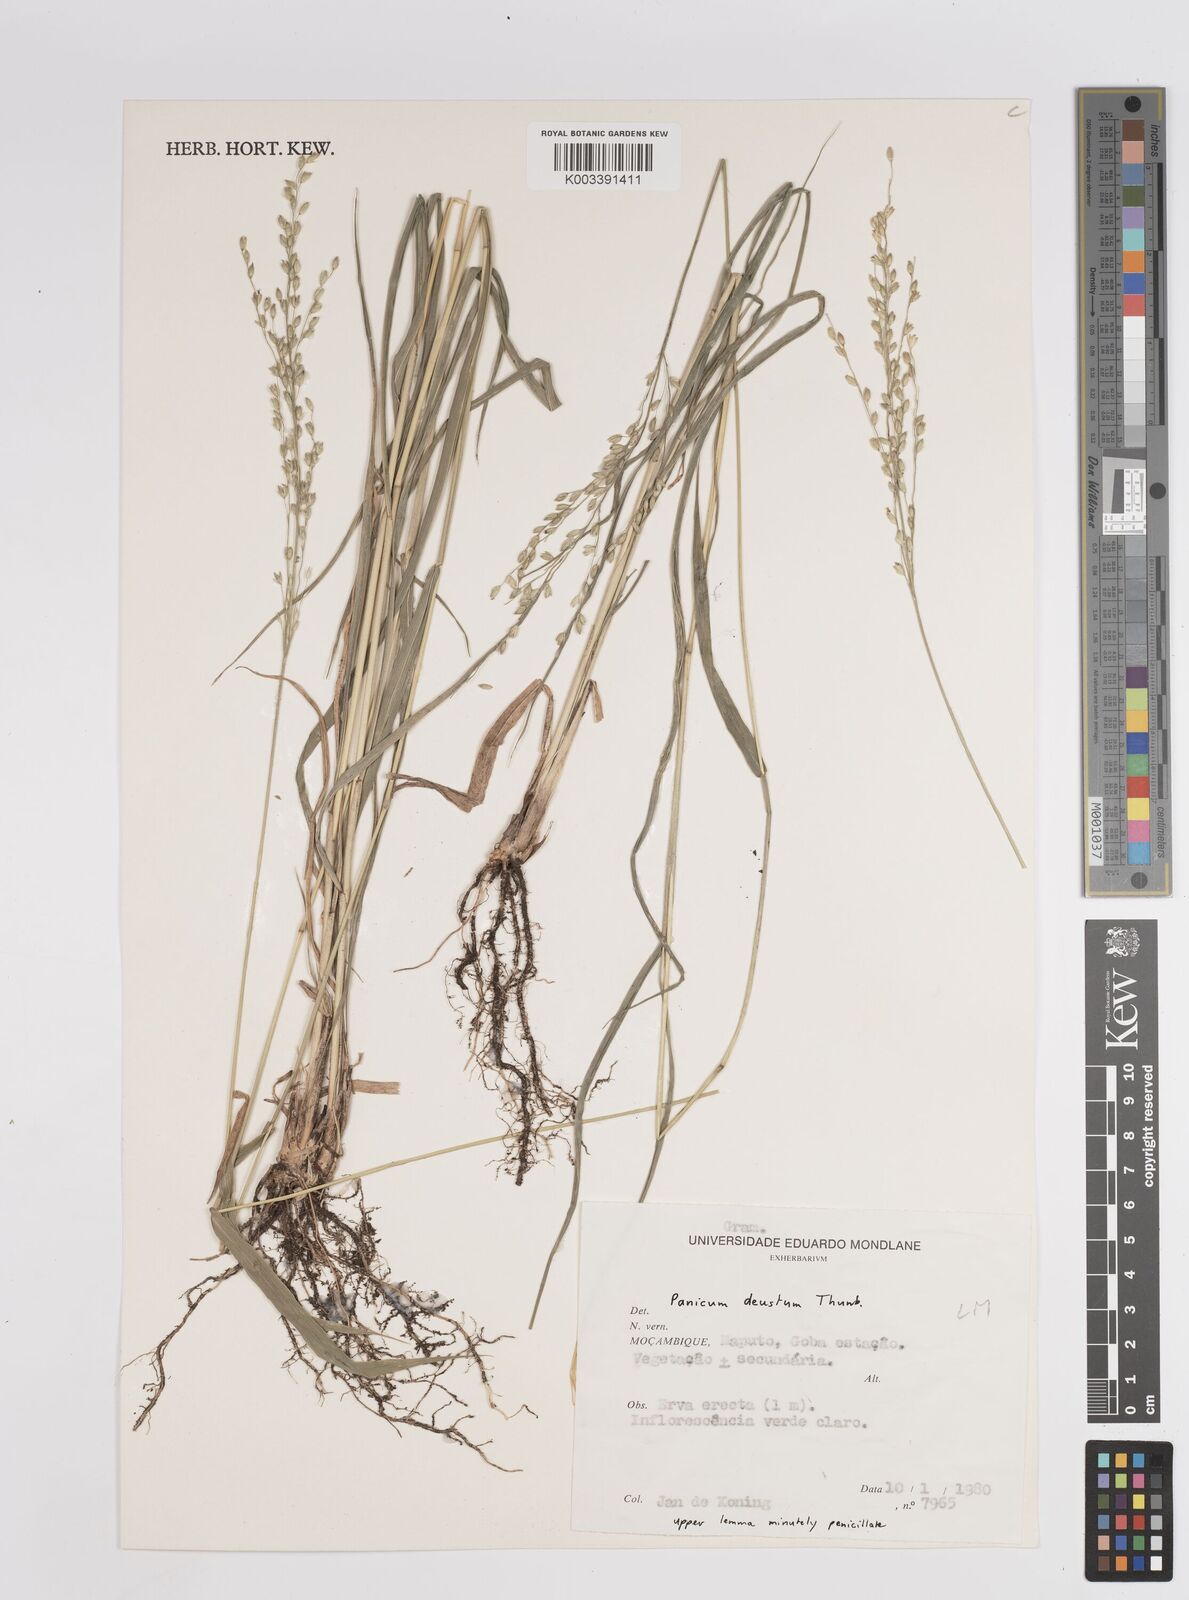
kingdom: Plantae
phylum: Tracheophyta
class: Liliopsida
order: Poales
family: Poaceae
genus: Panicum
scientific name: Panicum deustum
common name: Reed panicum
